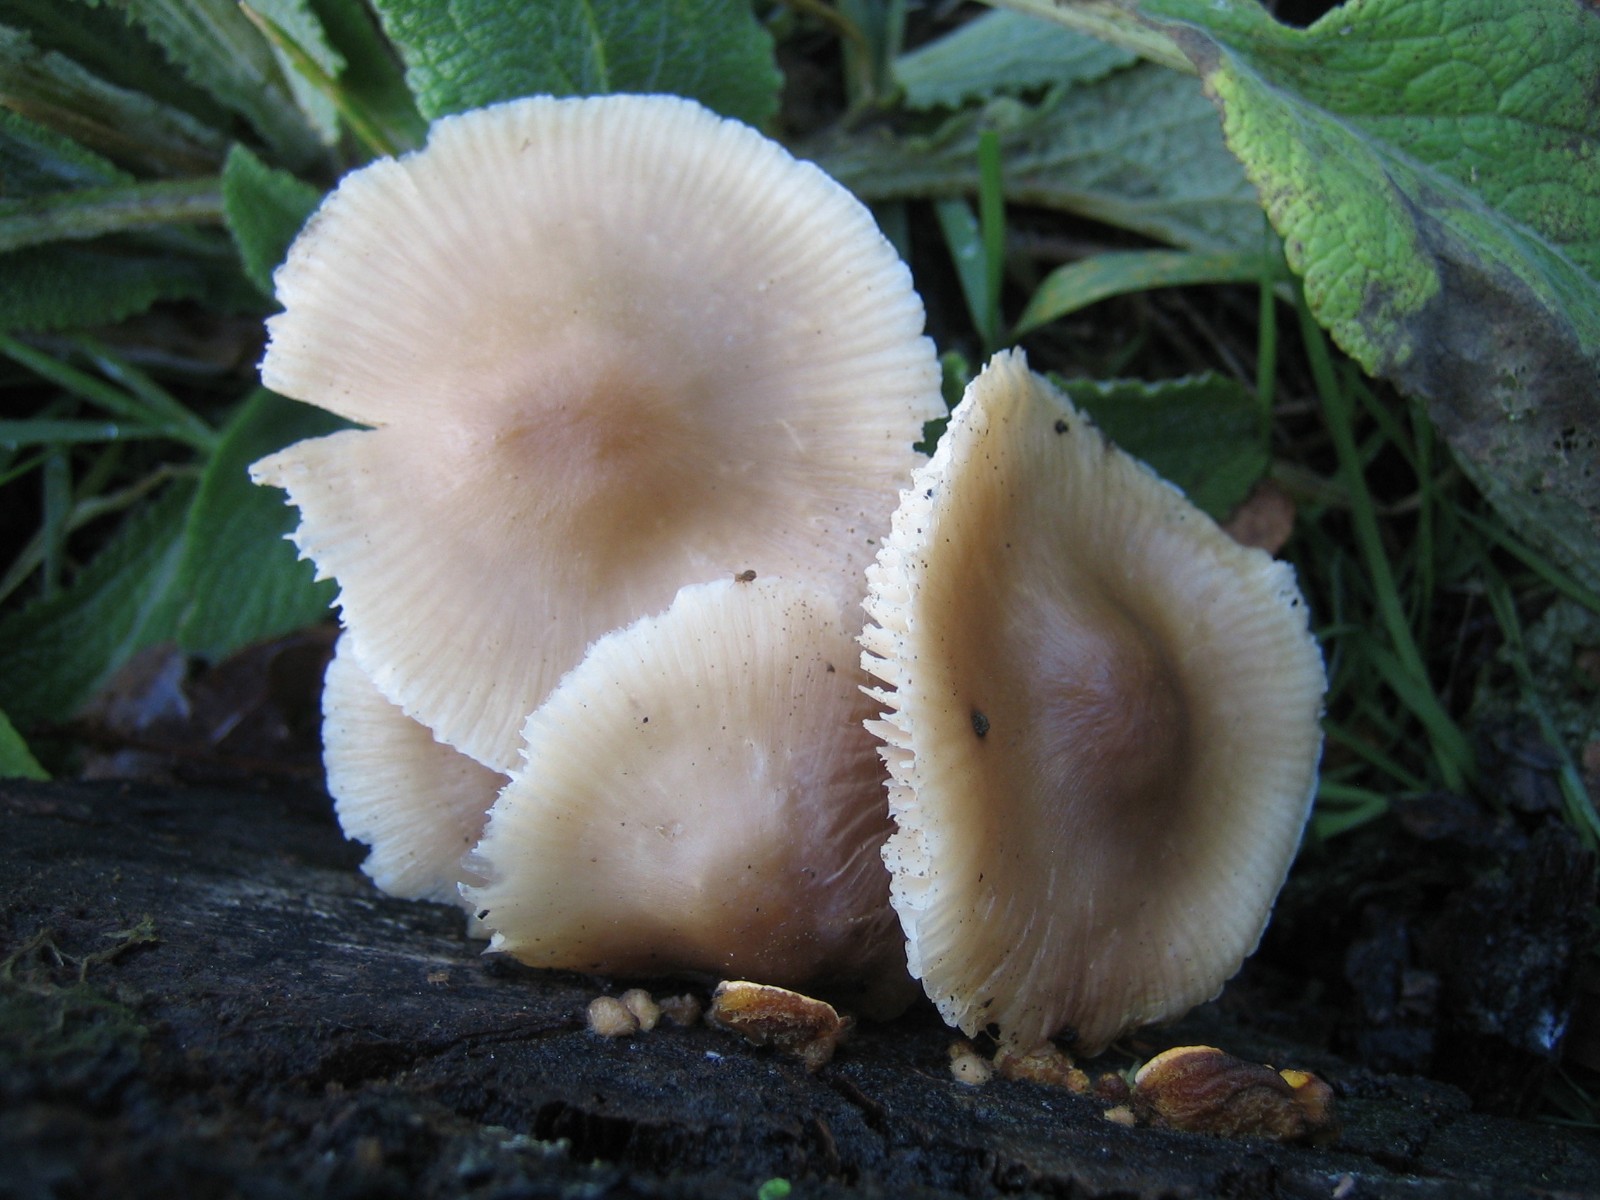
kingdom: Fungi
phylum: Basidiomycota
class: Agaricomycetes
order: Agaricales
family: Mycenaceae
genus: Mycena
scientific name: Mycena galericulata
